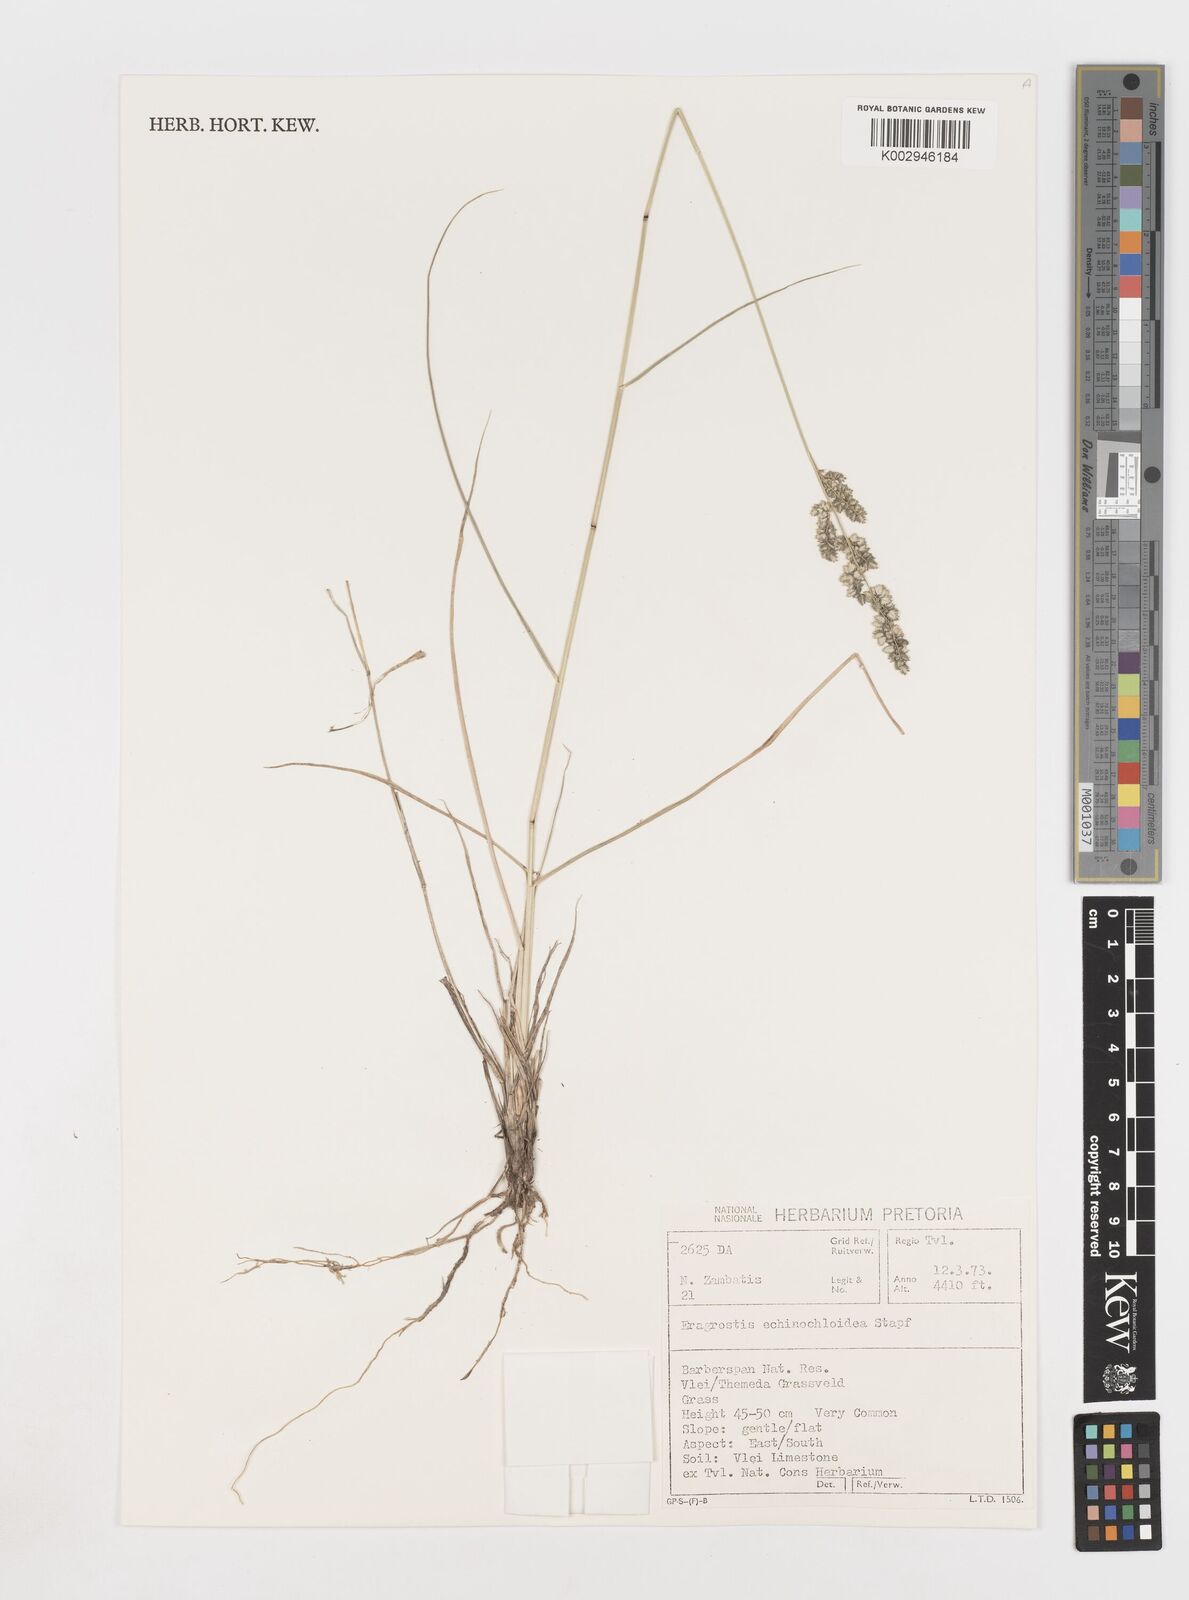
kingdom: Plantae
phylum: Tracheophyta
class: Liliopsida
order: Poales
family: Poaceae
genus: Eragrostis
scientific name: Eragrostis echinochloidea
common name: African lovegrass
